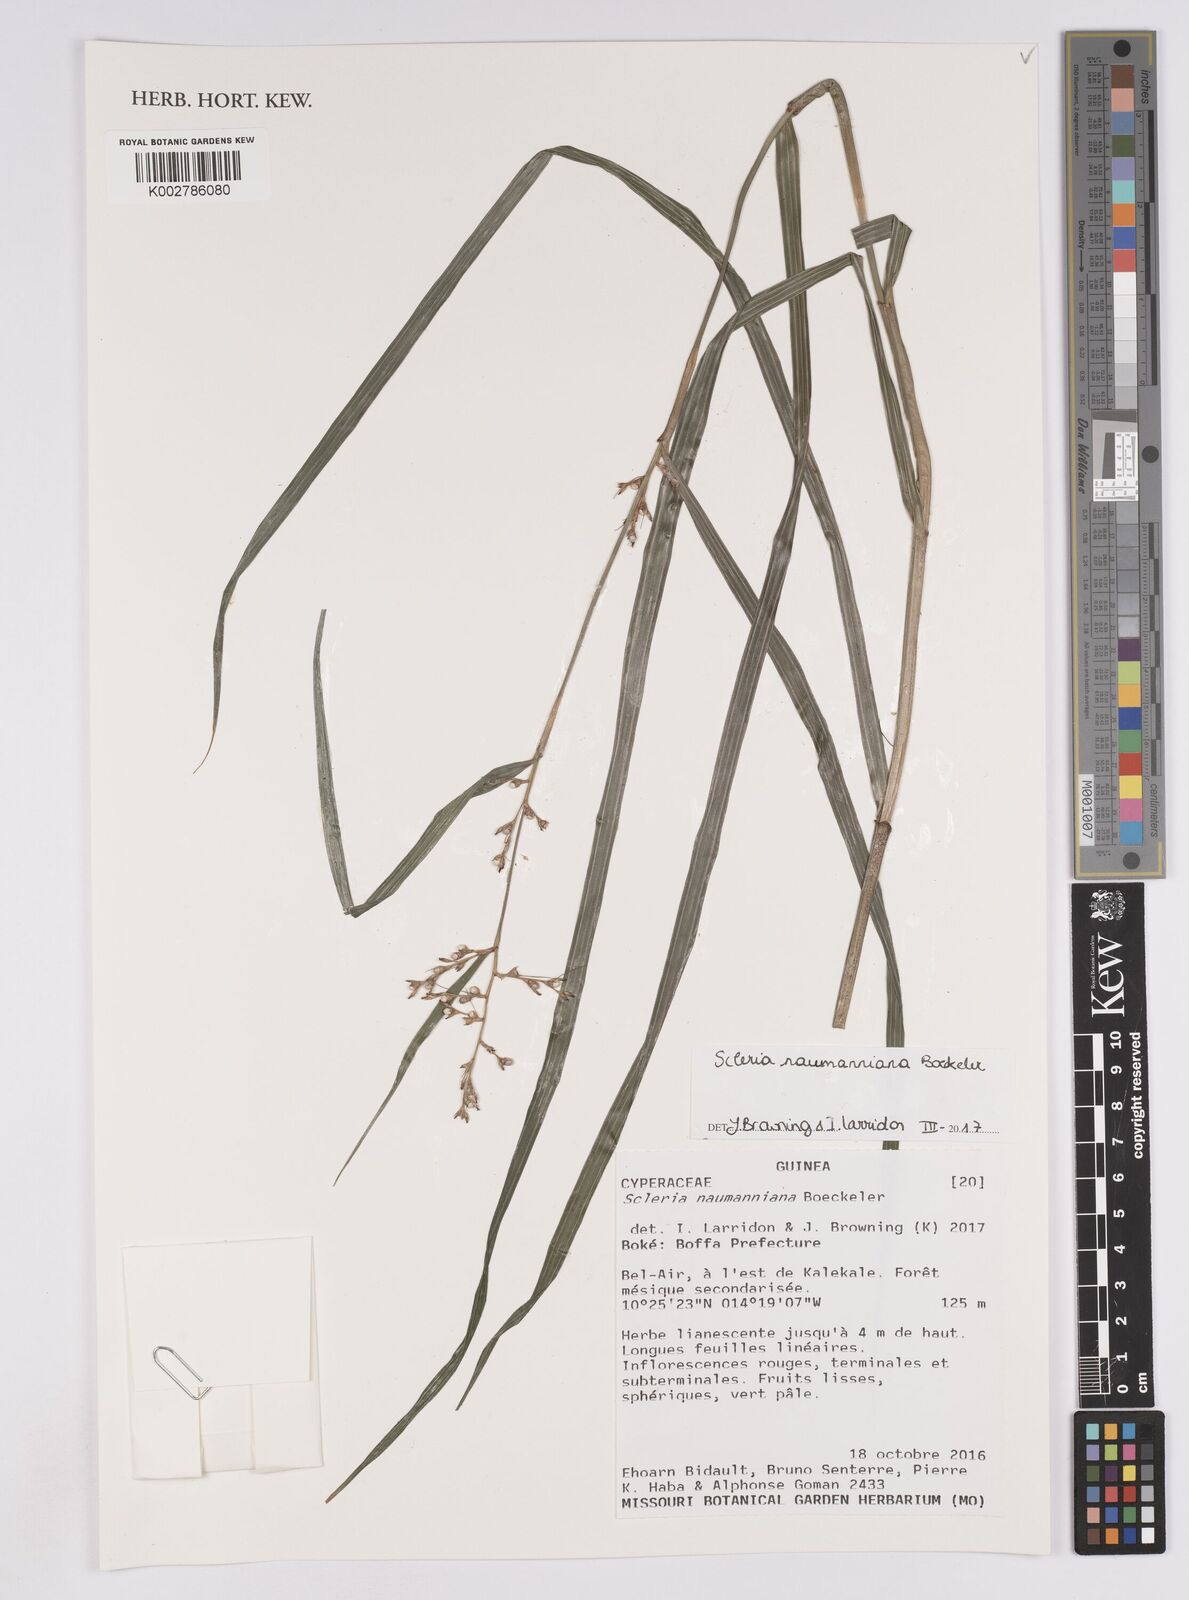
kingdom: Plantae
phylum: Tracheophyta
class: Liliopsida
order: Poales
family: Cyperaceae
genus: Scleria
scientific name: Scleria naumanniana
